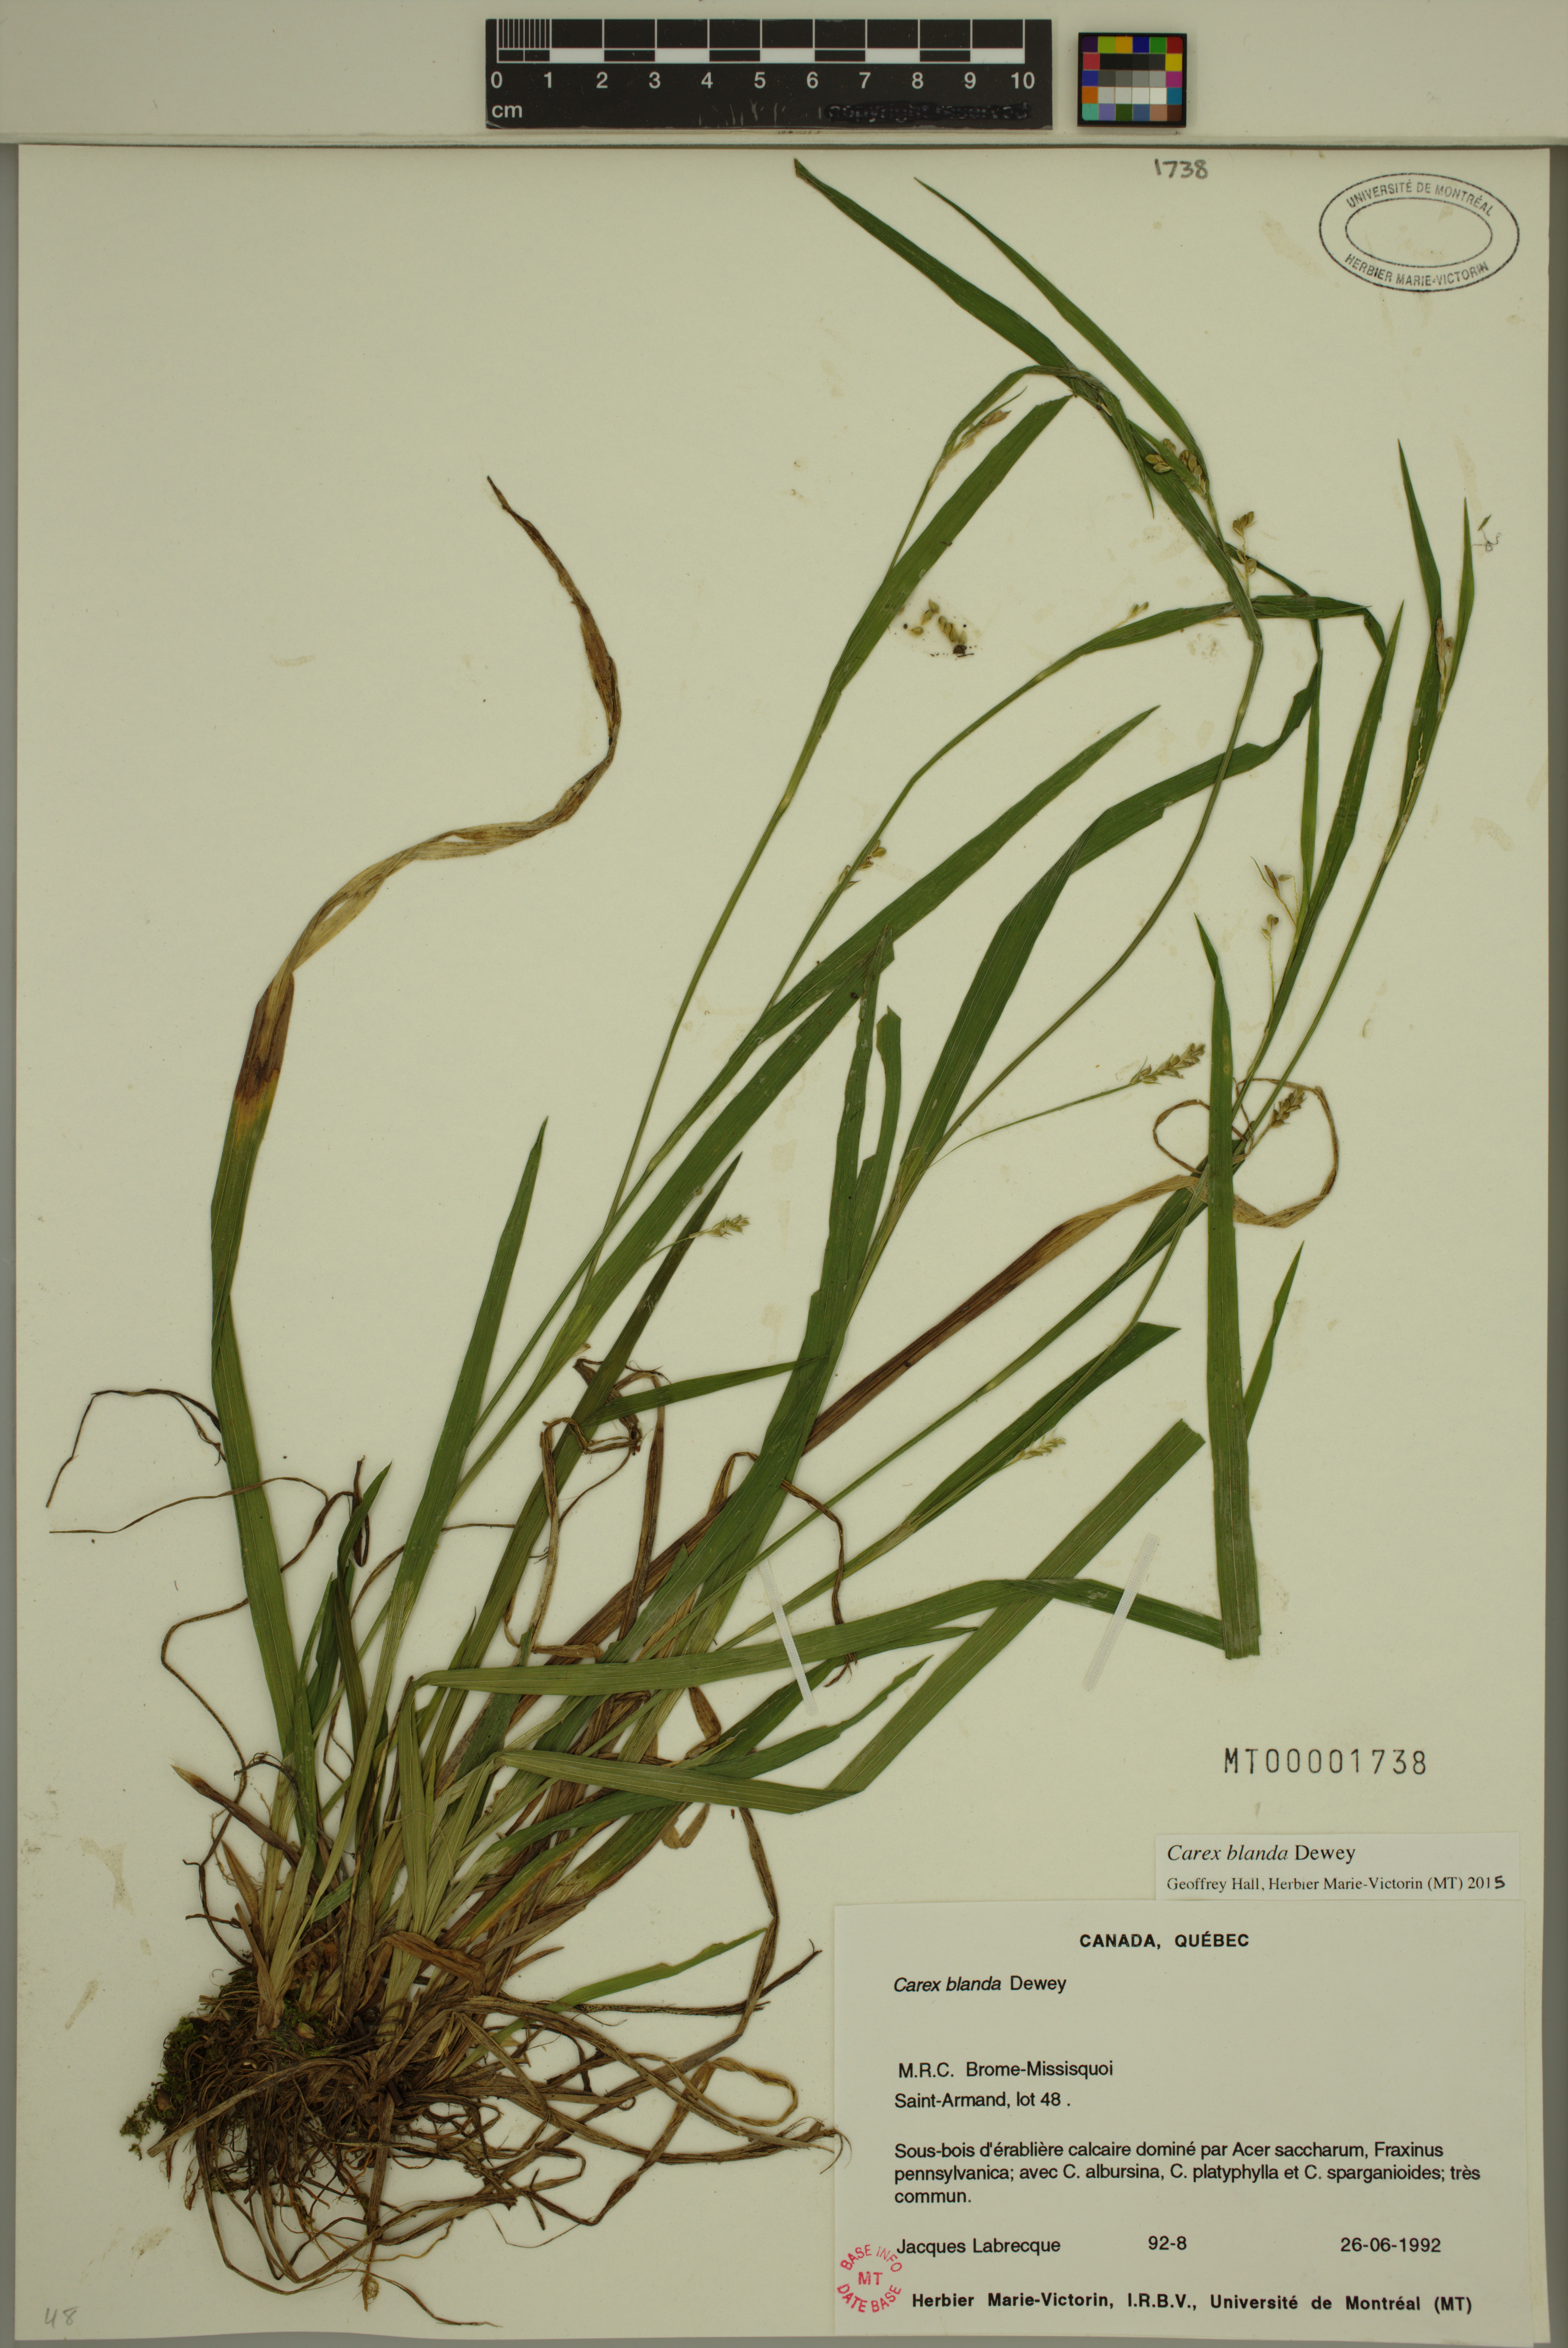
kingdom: Plantae
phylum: Tracheophyta
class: Liliopsida
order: Poales
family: Cyperaceae
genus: Carex
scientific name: Carex blanda
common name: Bland sedge
